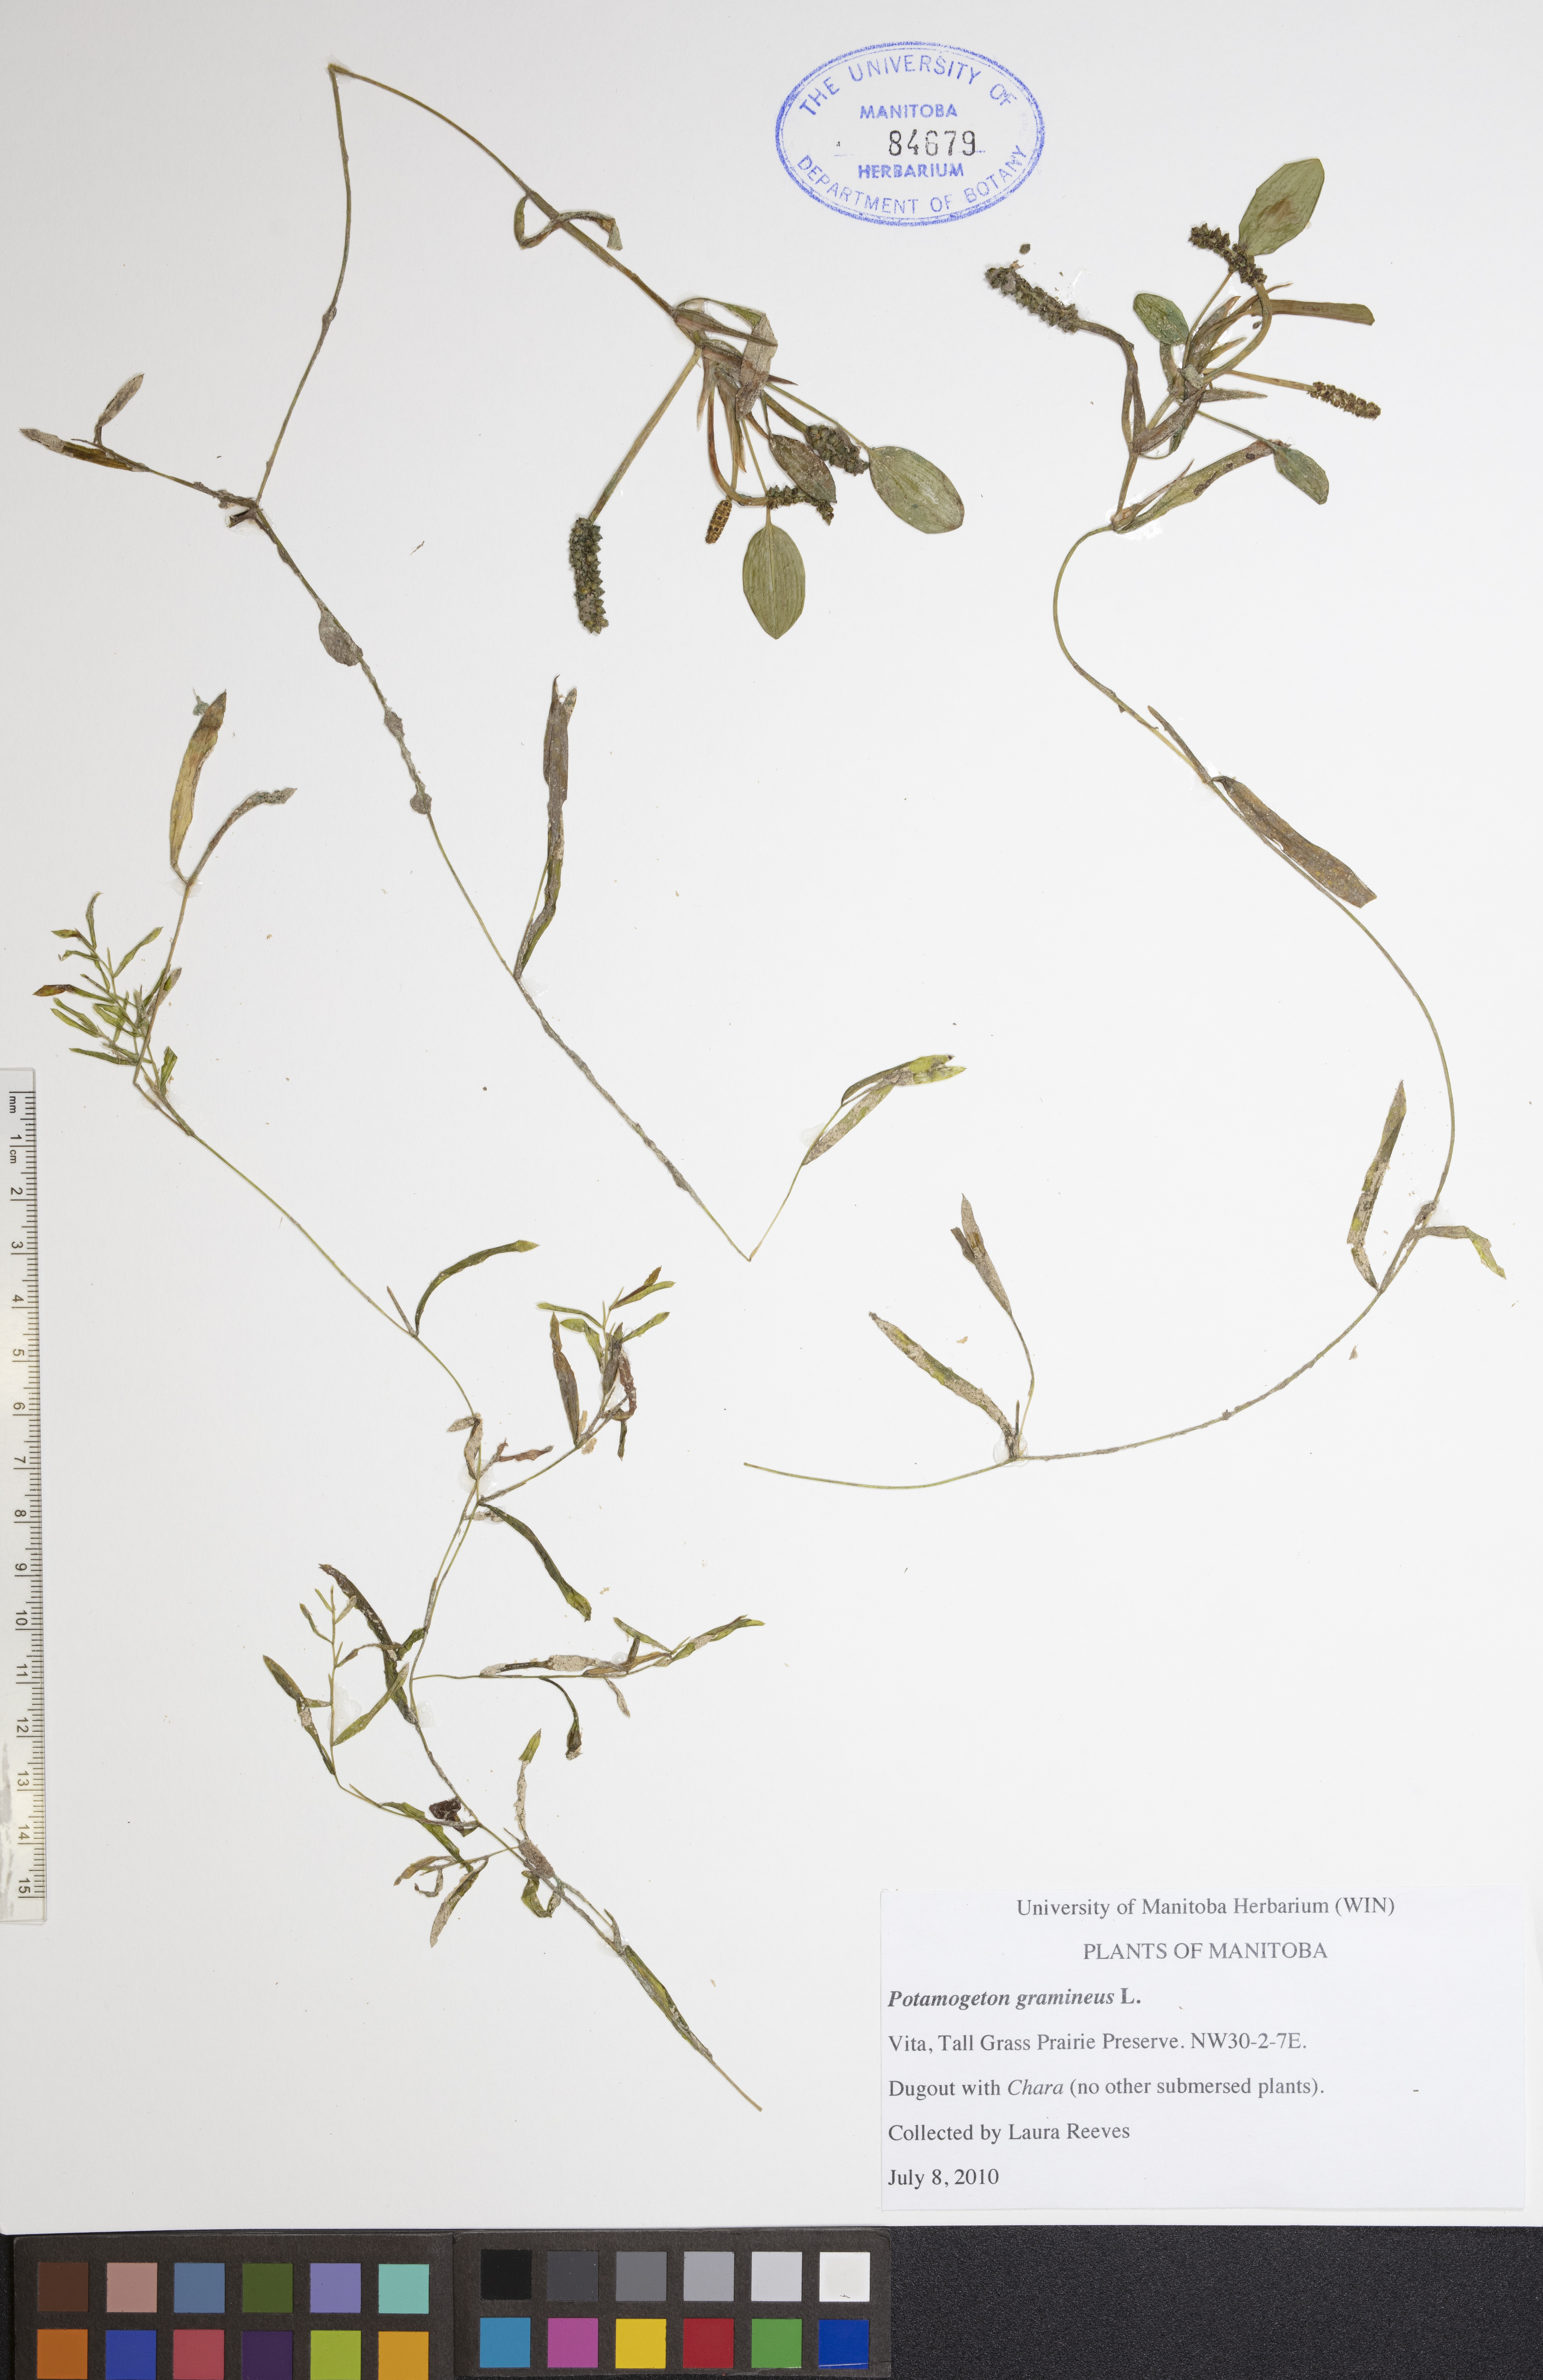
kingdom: Plantae
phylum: Tracheophyta
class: Liliopsida
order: Alismatales
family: Potamogetonaceae
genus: Potamogeton
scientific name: Potamogeton gramineus
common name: Various-leaved pondweed
